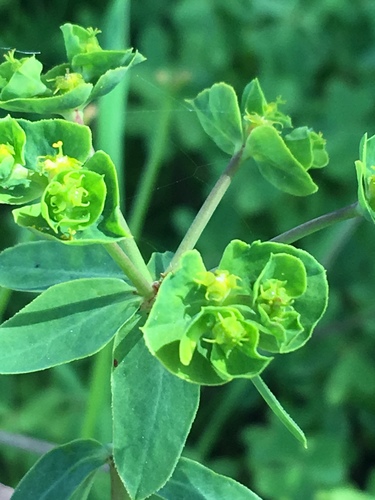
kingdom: Plantae
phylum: Tracheophyta
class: Magnoliopsida
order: Malpighiales
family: Euphorbiaceae
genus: Euphorbia
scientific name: Euphorbia terracina
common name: Geraldton carnation weed
